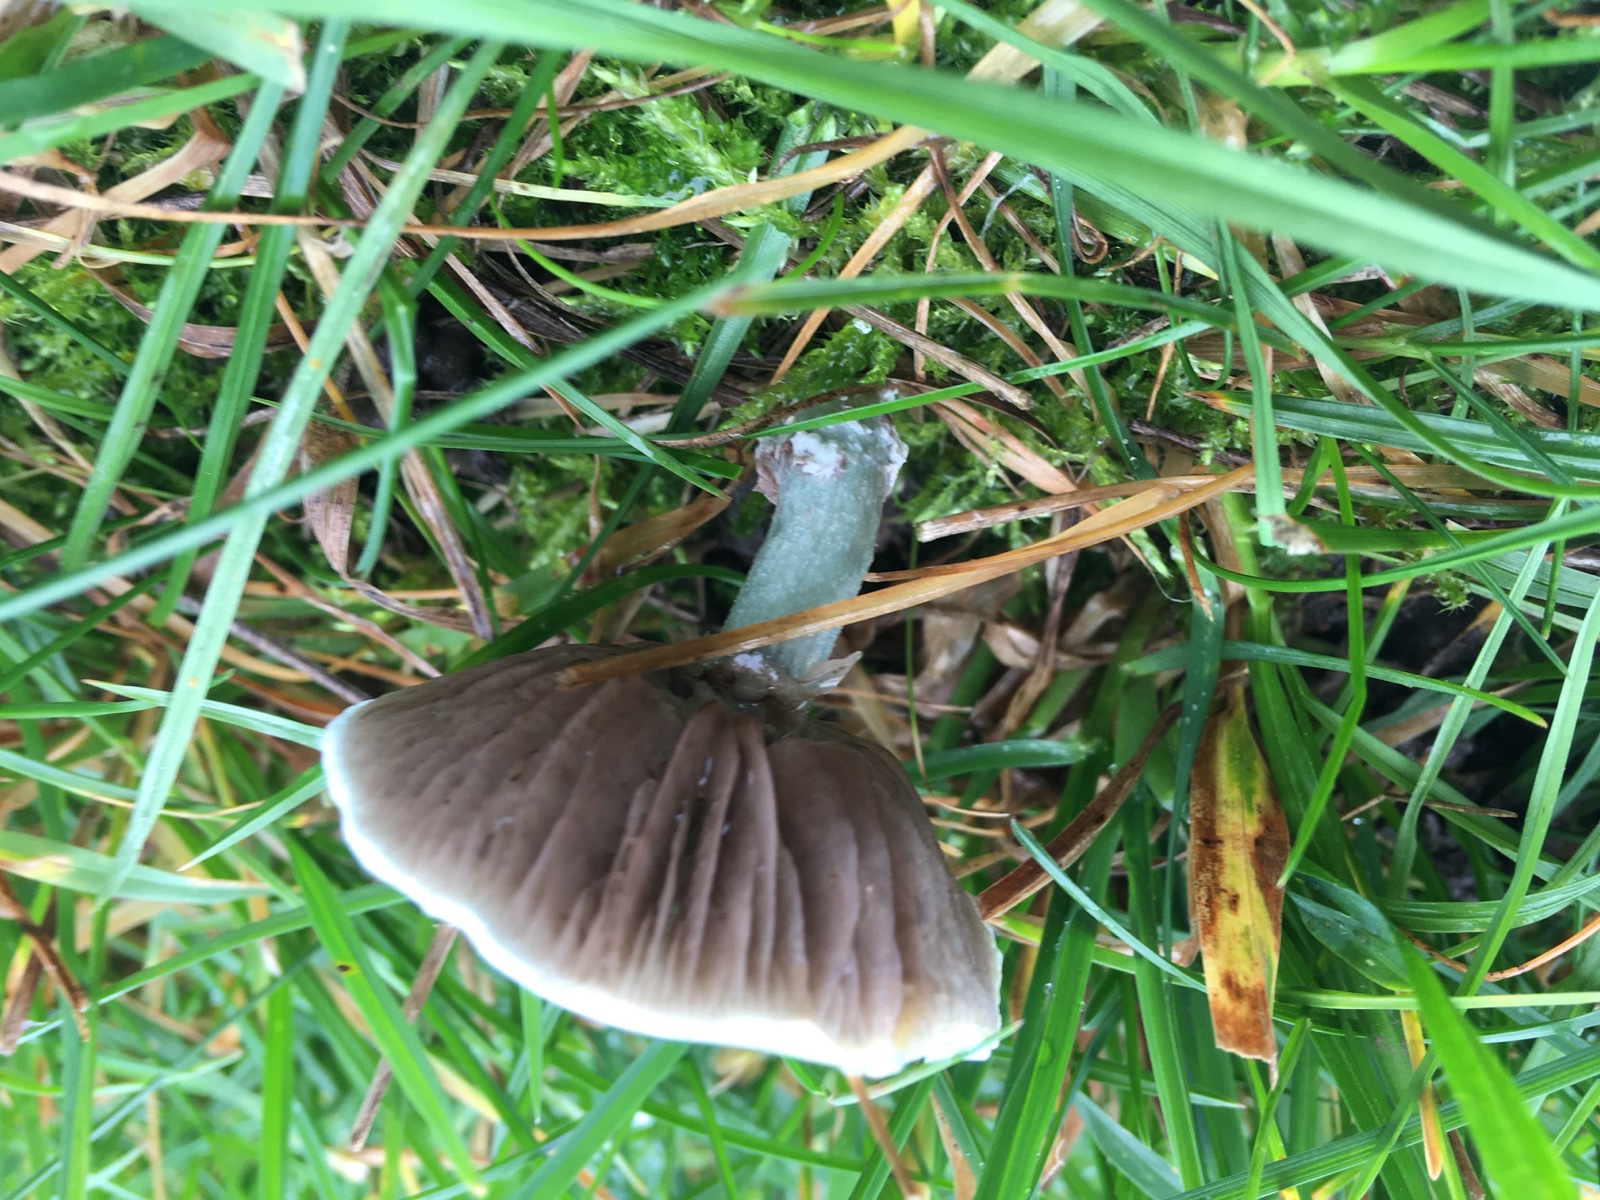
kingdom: Fungi
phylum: Basidiomycota
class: Agaricomycetes
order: Agaricales
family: Strophariaceae
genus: Stropharia
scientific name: Stropharia cyanea
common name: blågrøn bredblad
